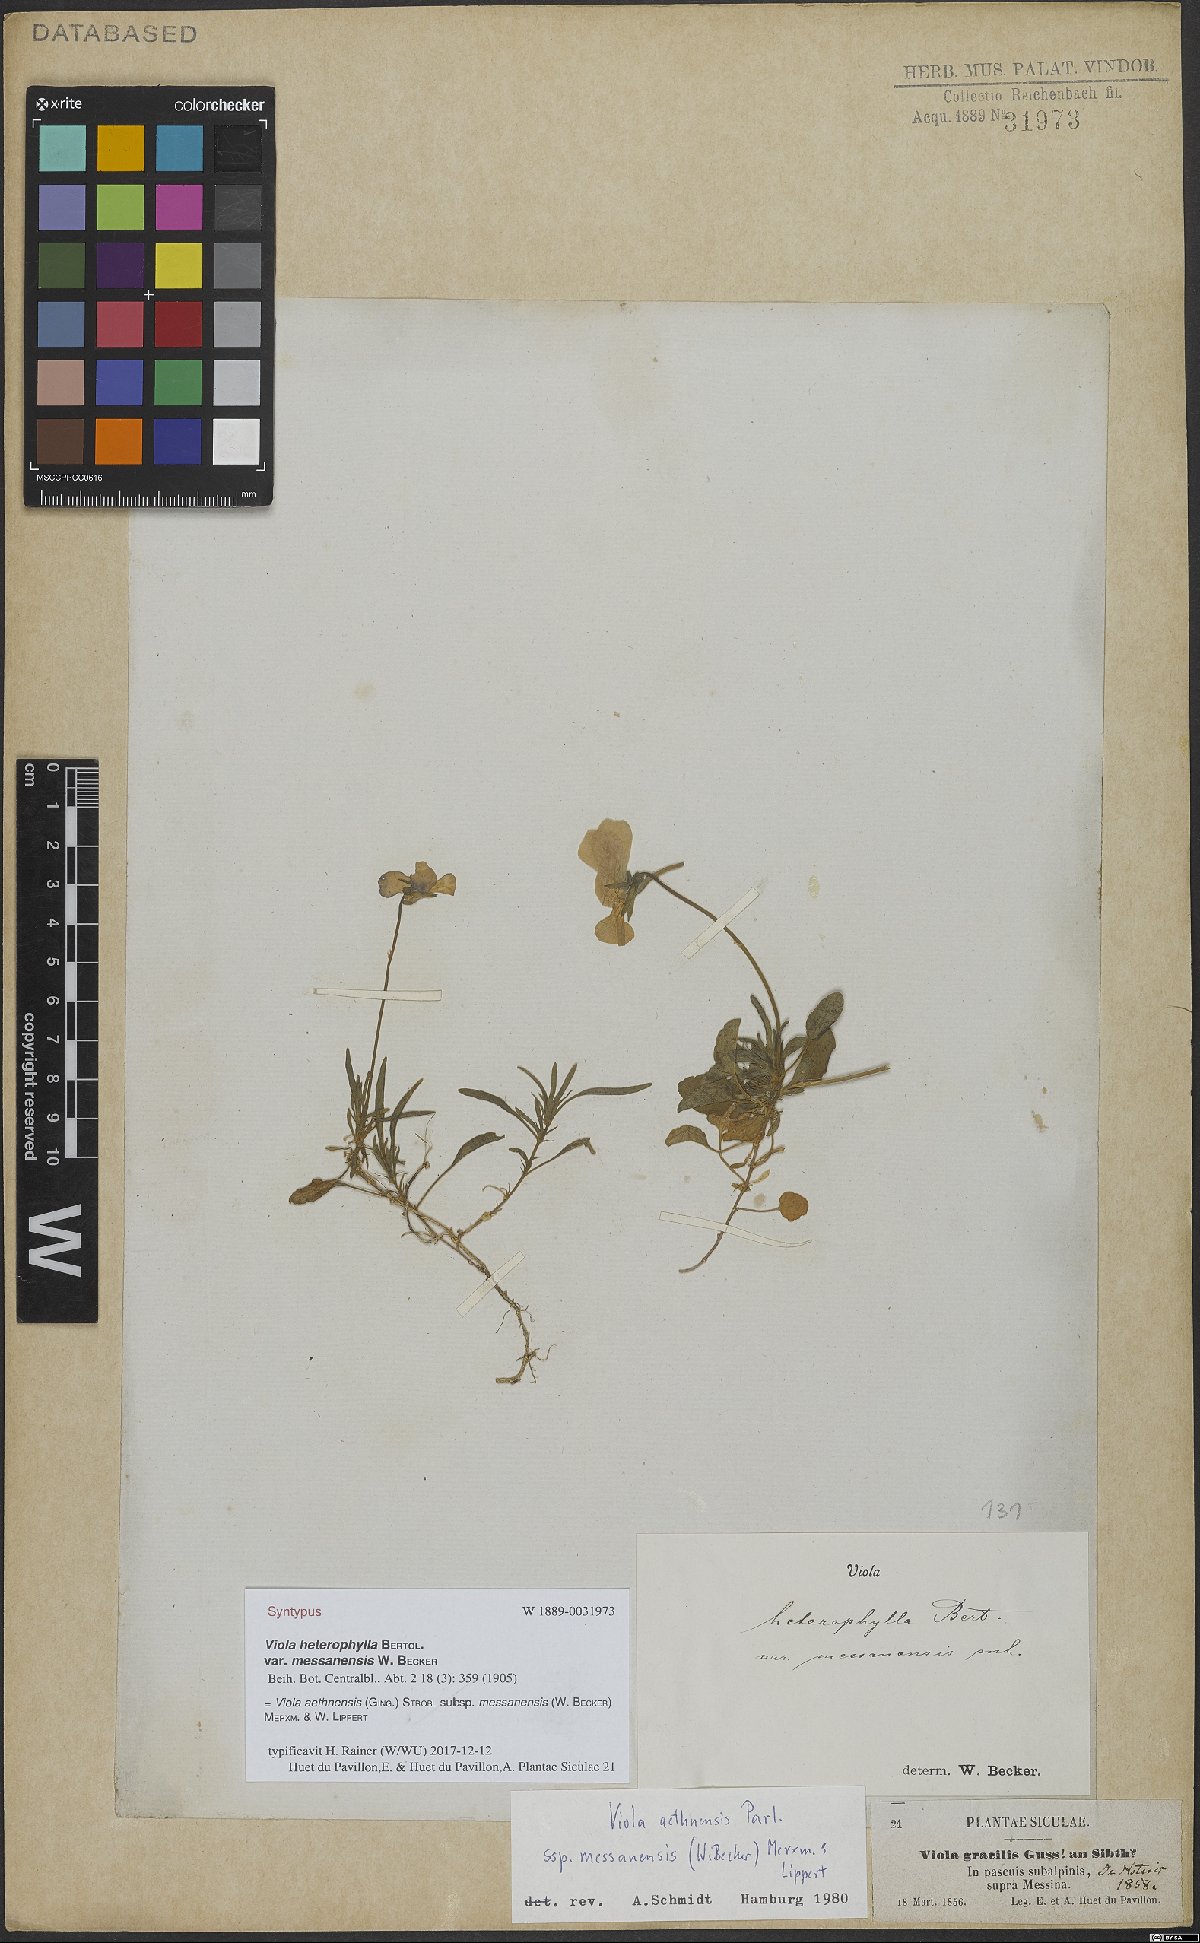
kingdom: Plantae
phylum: Tracheophyta
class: Magnoliopsida
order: Malpighiales
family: Violaceae
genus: Viola
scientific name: Viola aethnensis
